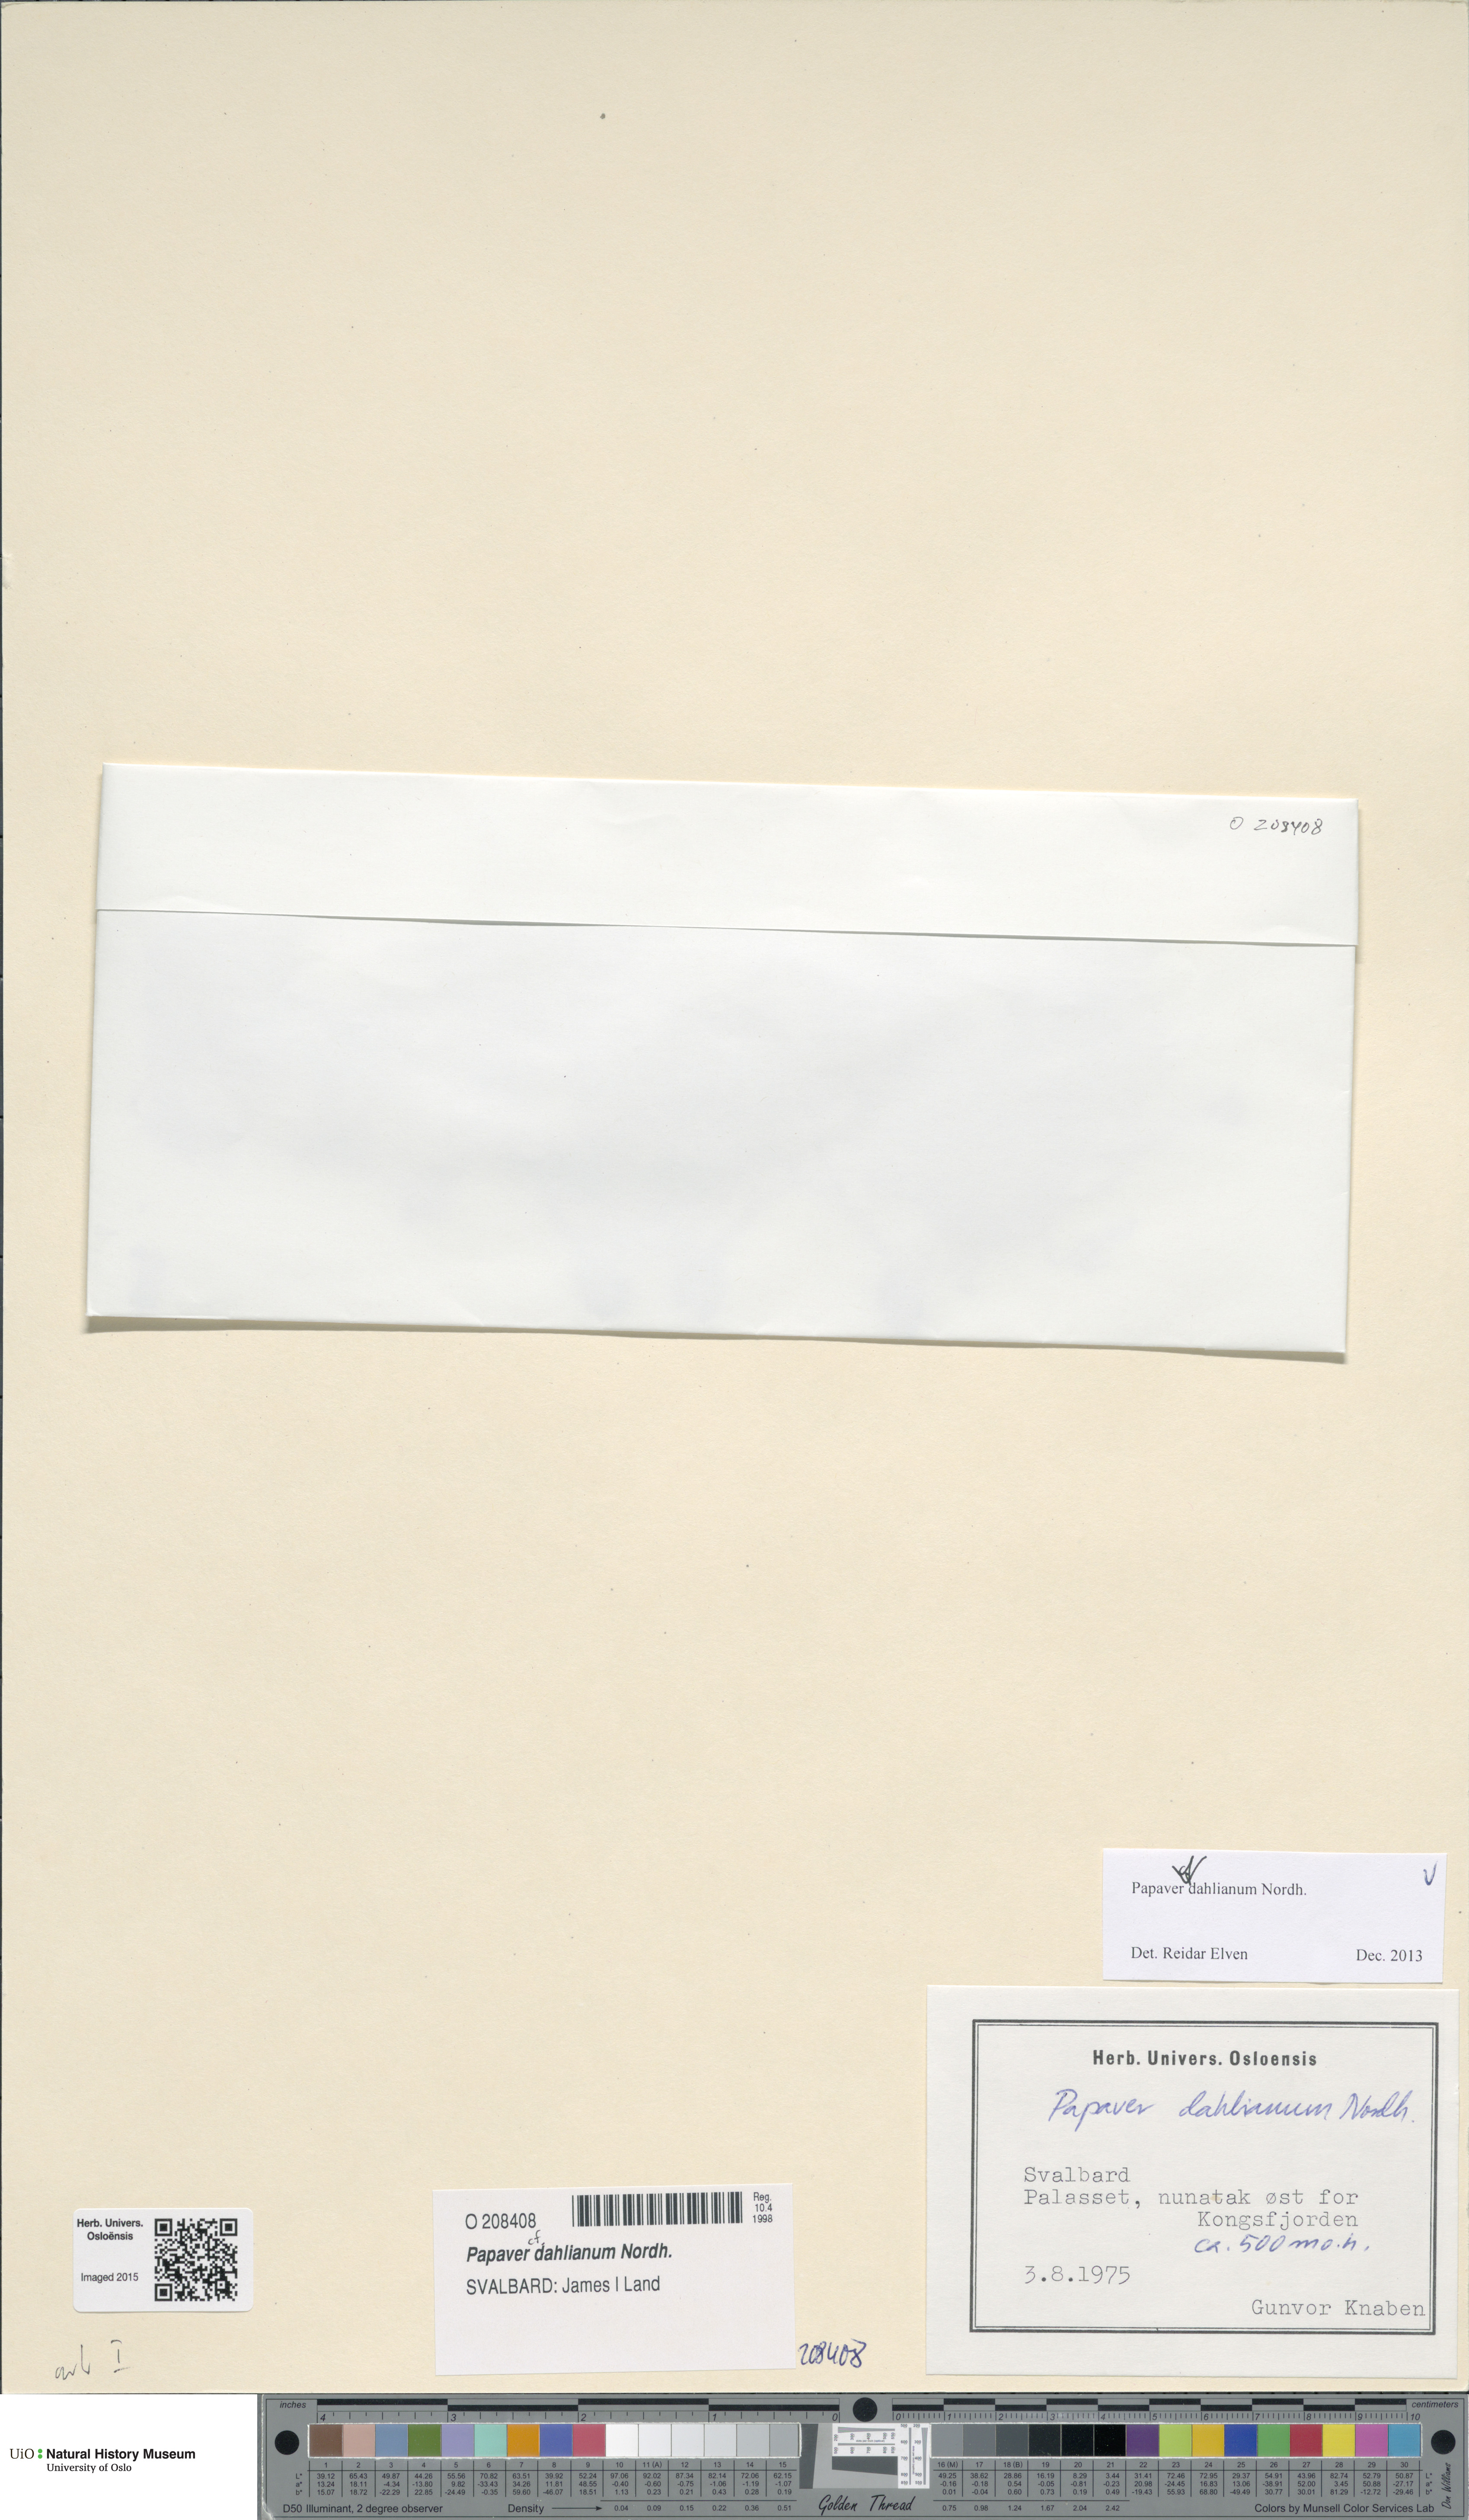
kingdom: Plantae
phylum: Tracheophyta
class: Magnoliopsida
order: Ranunculales
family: Papaveraceae
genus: Papaver
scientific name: Papaver radicatum
